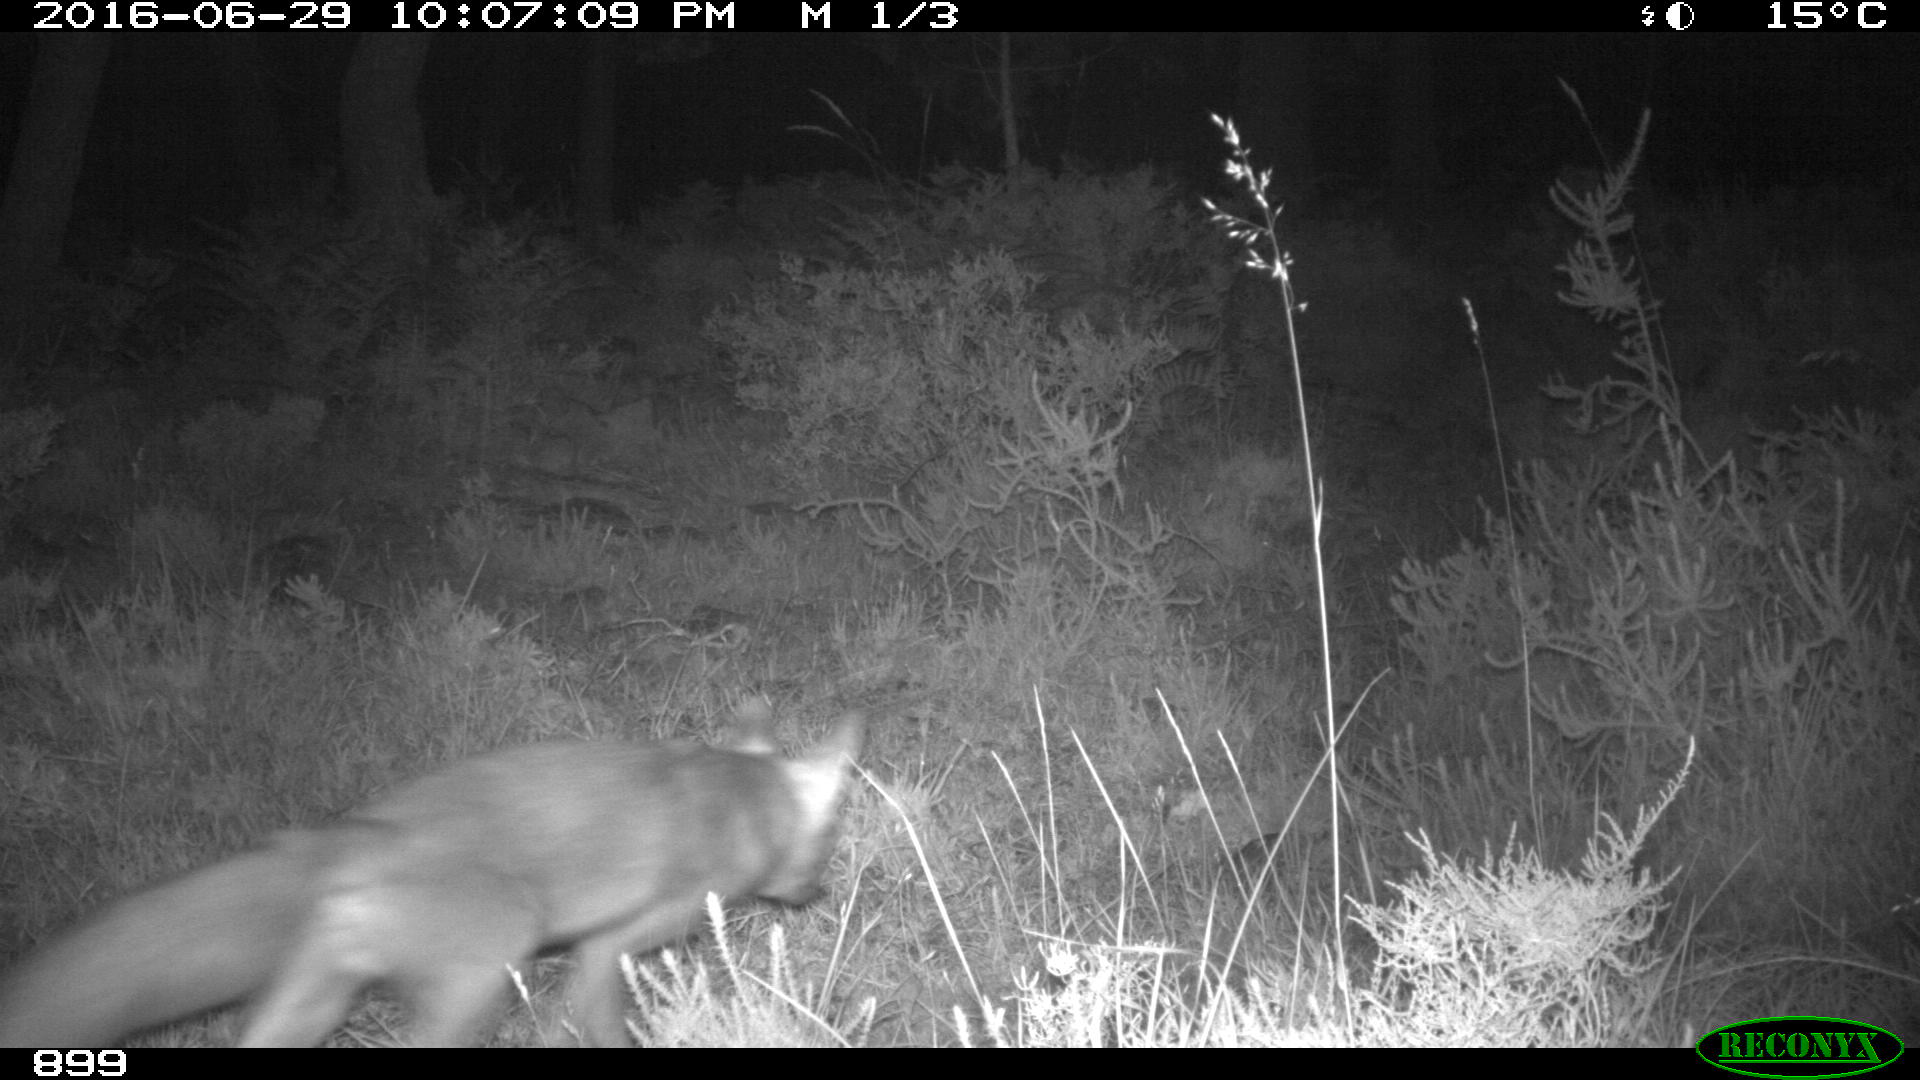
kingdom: Animalia
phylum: Chordata
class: Mammalia
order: Carnivora
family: Canidae
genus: Vulpes
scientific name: Vulpes vulpes
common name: Red fox
